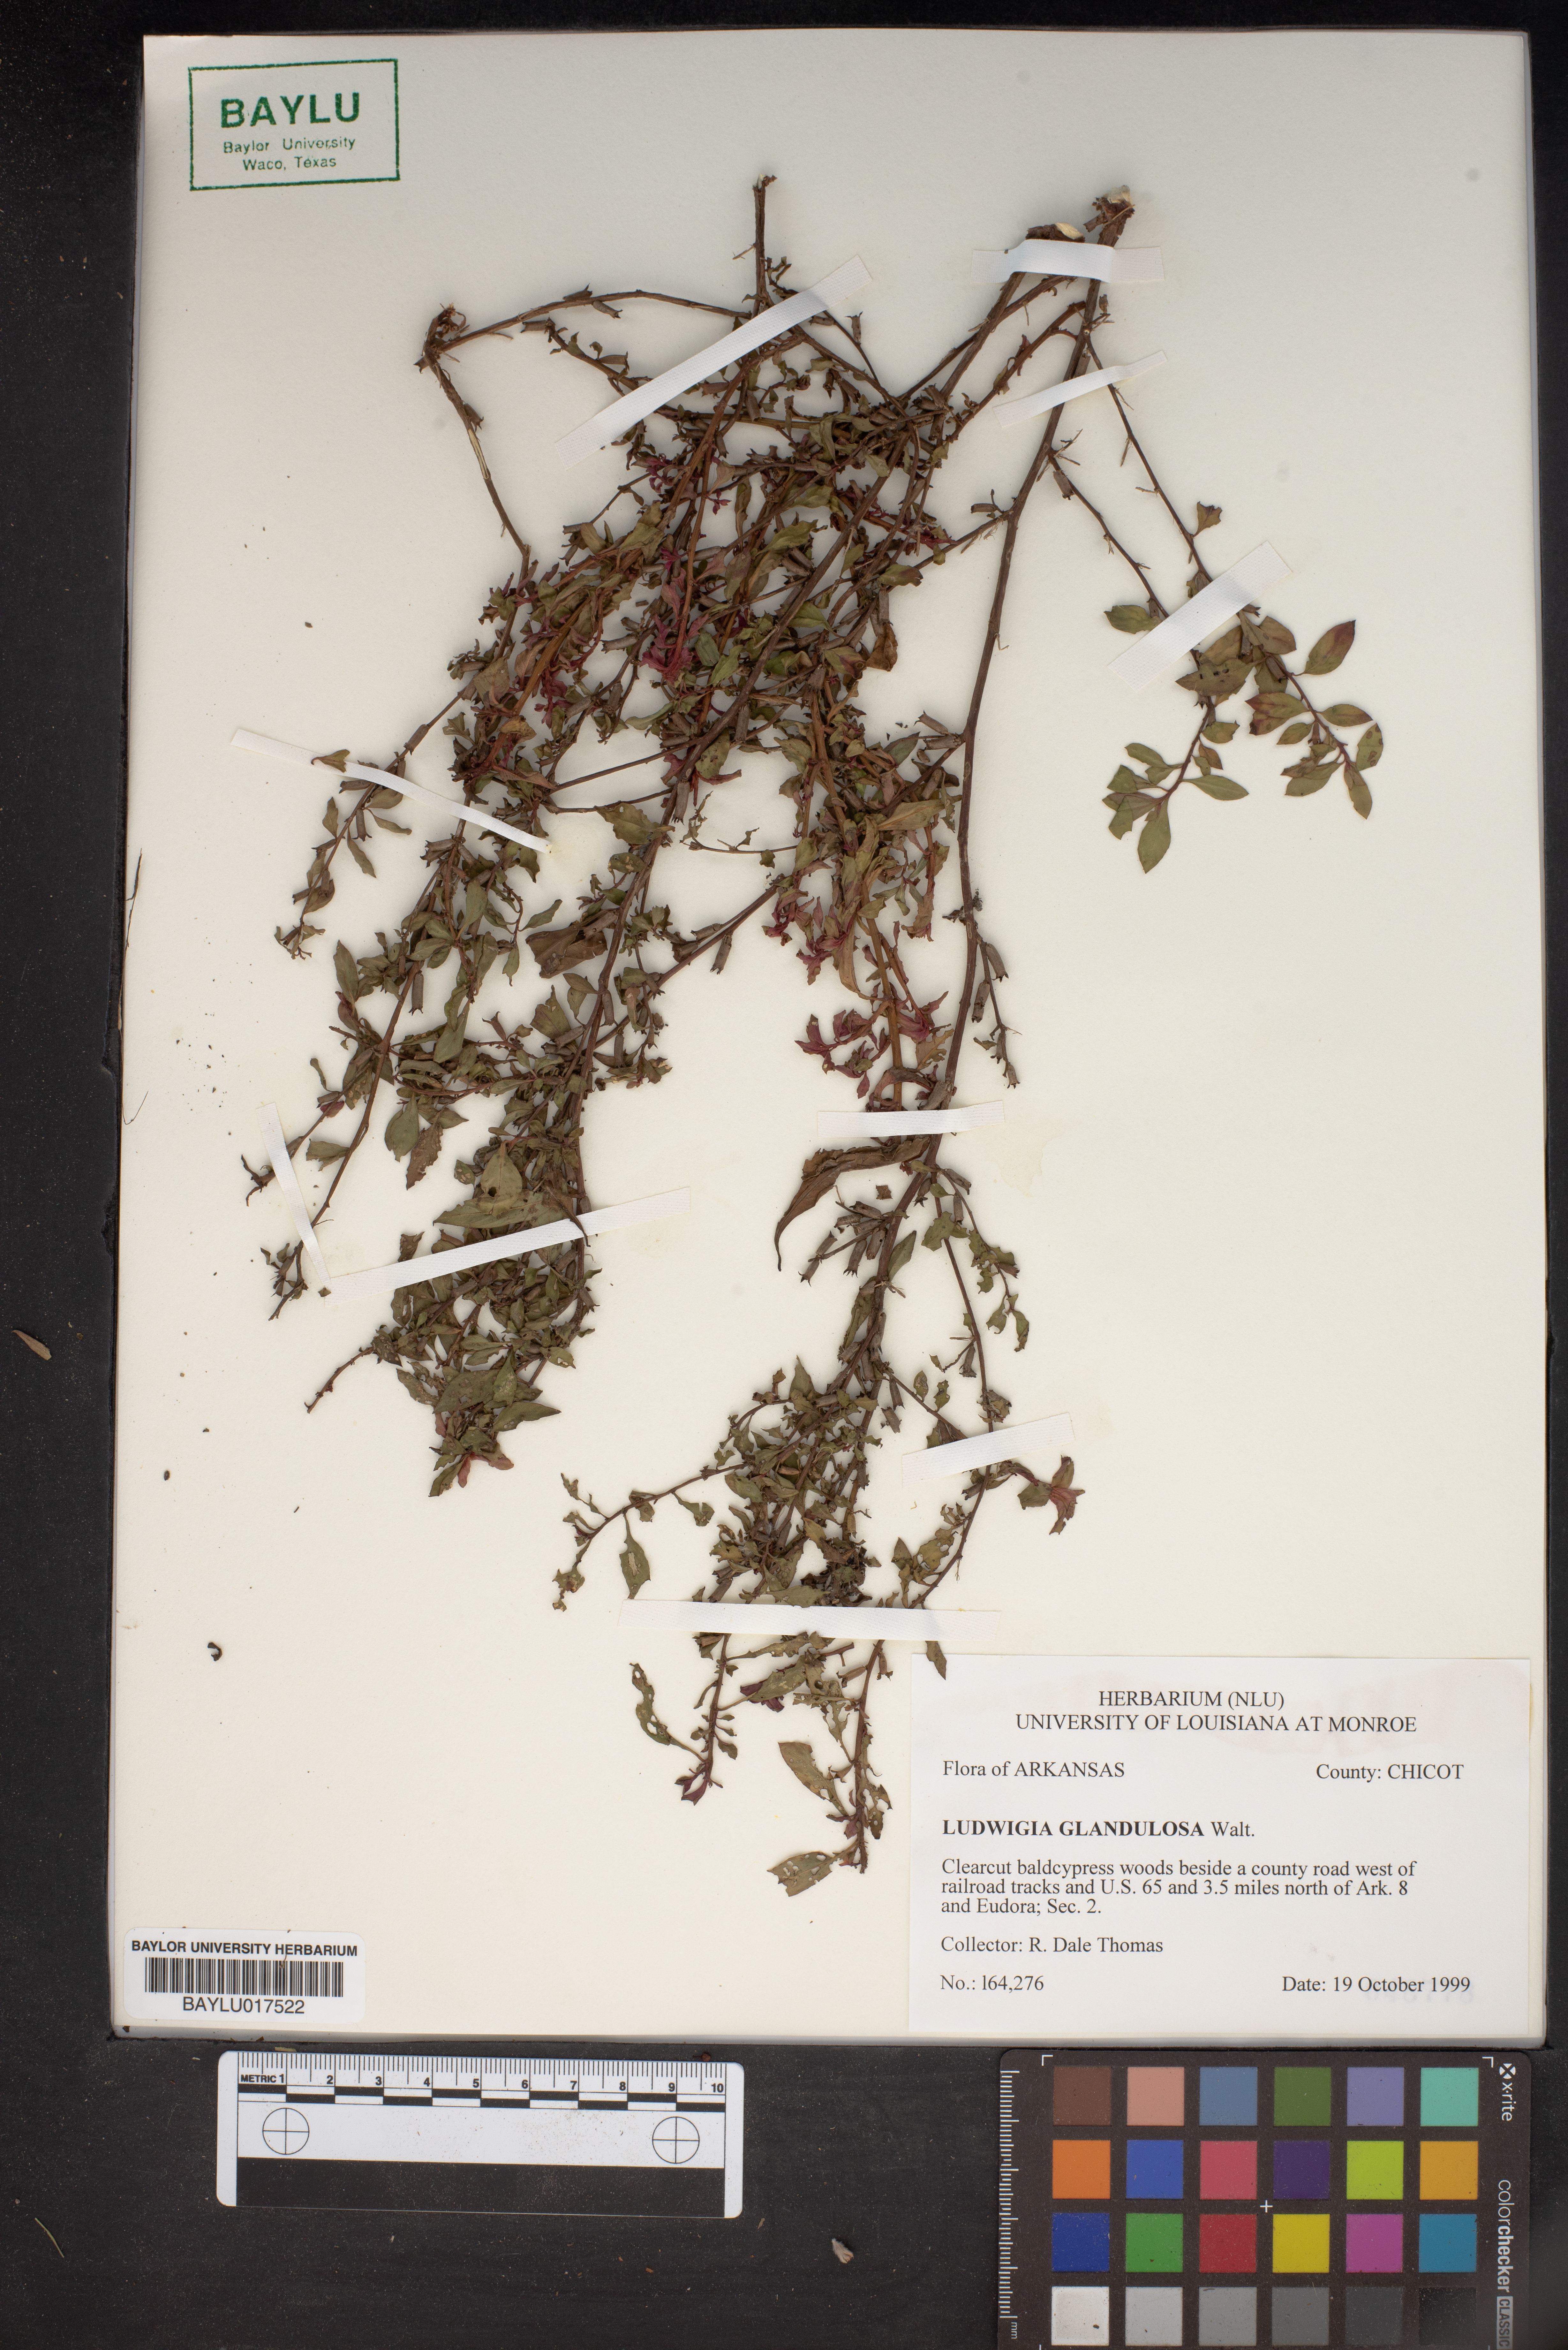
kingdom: Plantae
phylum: Tracheophyta
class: Magnoliopsida
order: Myrtales
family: Onagraceae
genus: Ludwigia
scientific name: Ludwigia glandulosa
